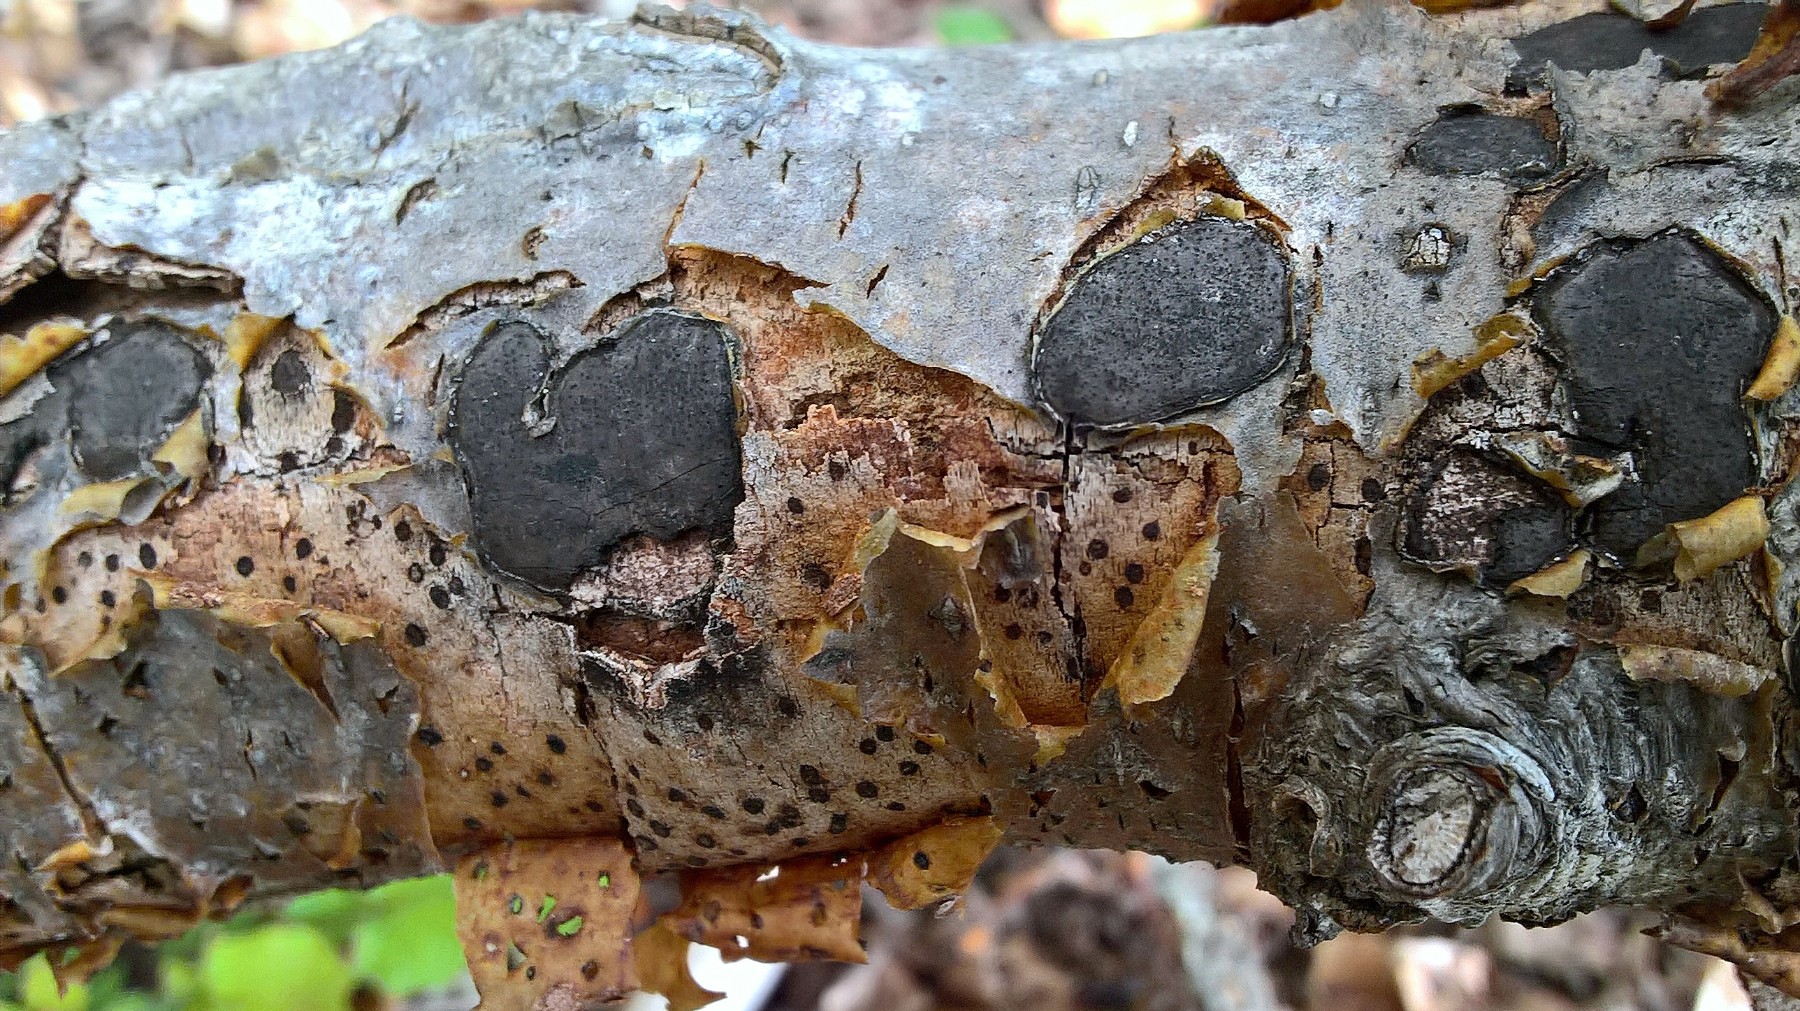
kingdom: Fungi
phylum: Ascomycota
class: Sordariomycetes
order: Xylariales
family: Graphostromataceae
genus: Biscogniauxia
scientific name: Biscogniauxia nummularia
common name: bøge-kulskive
